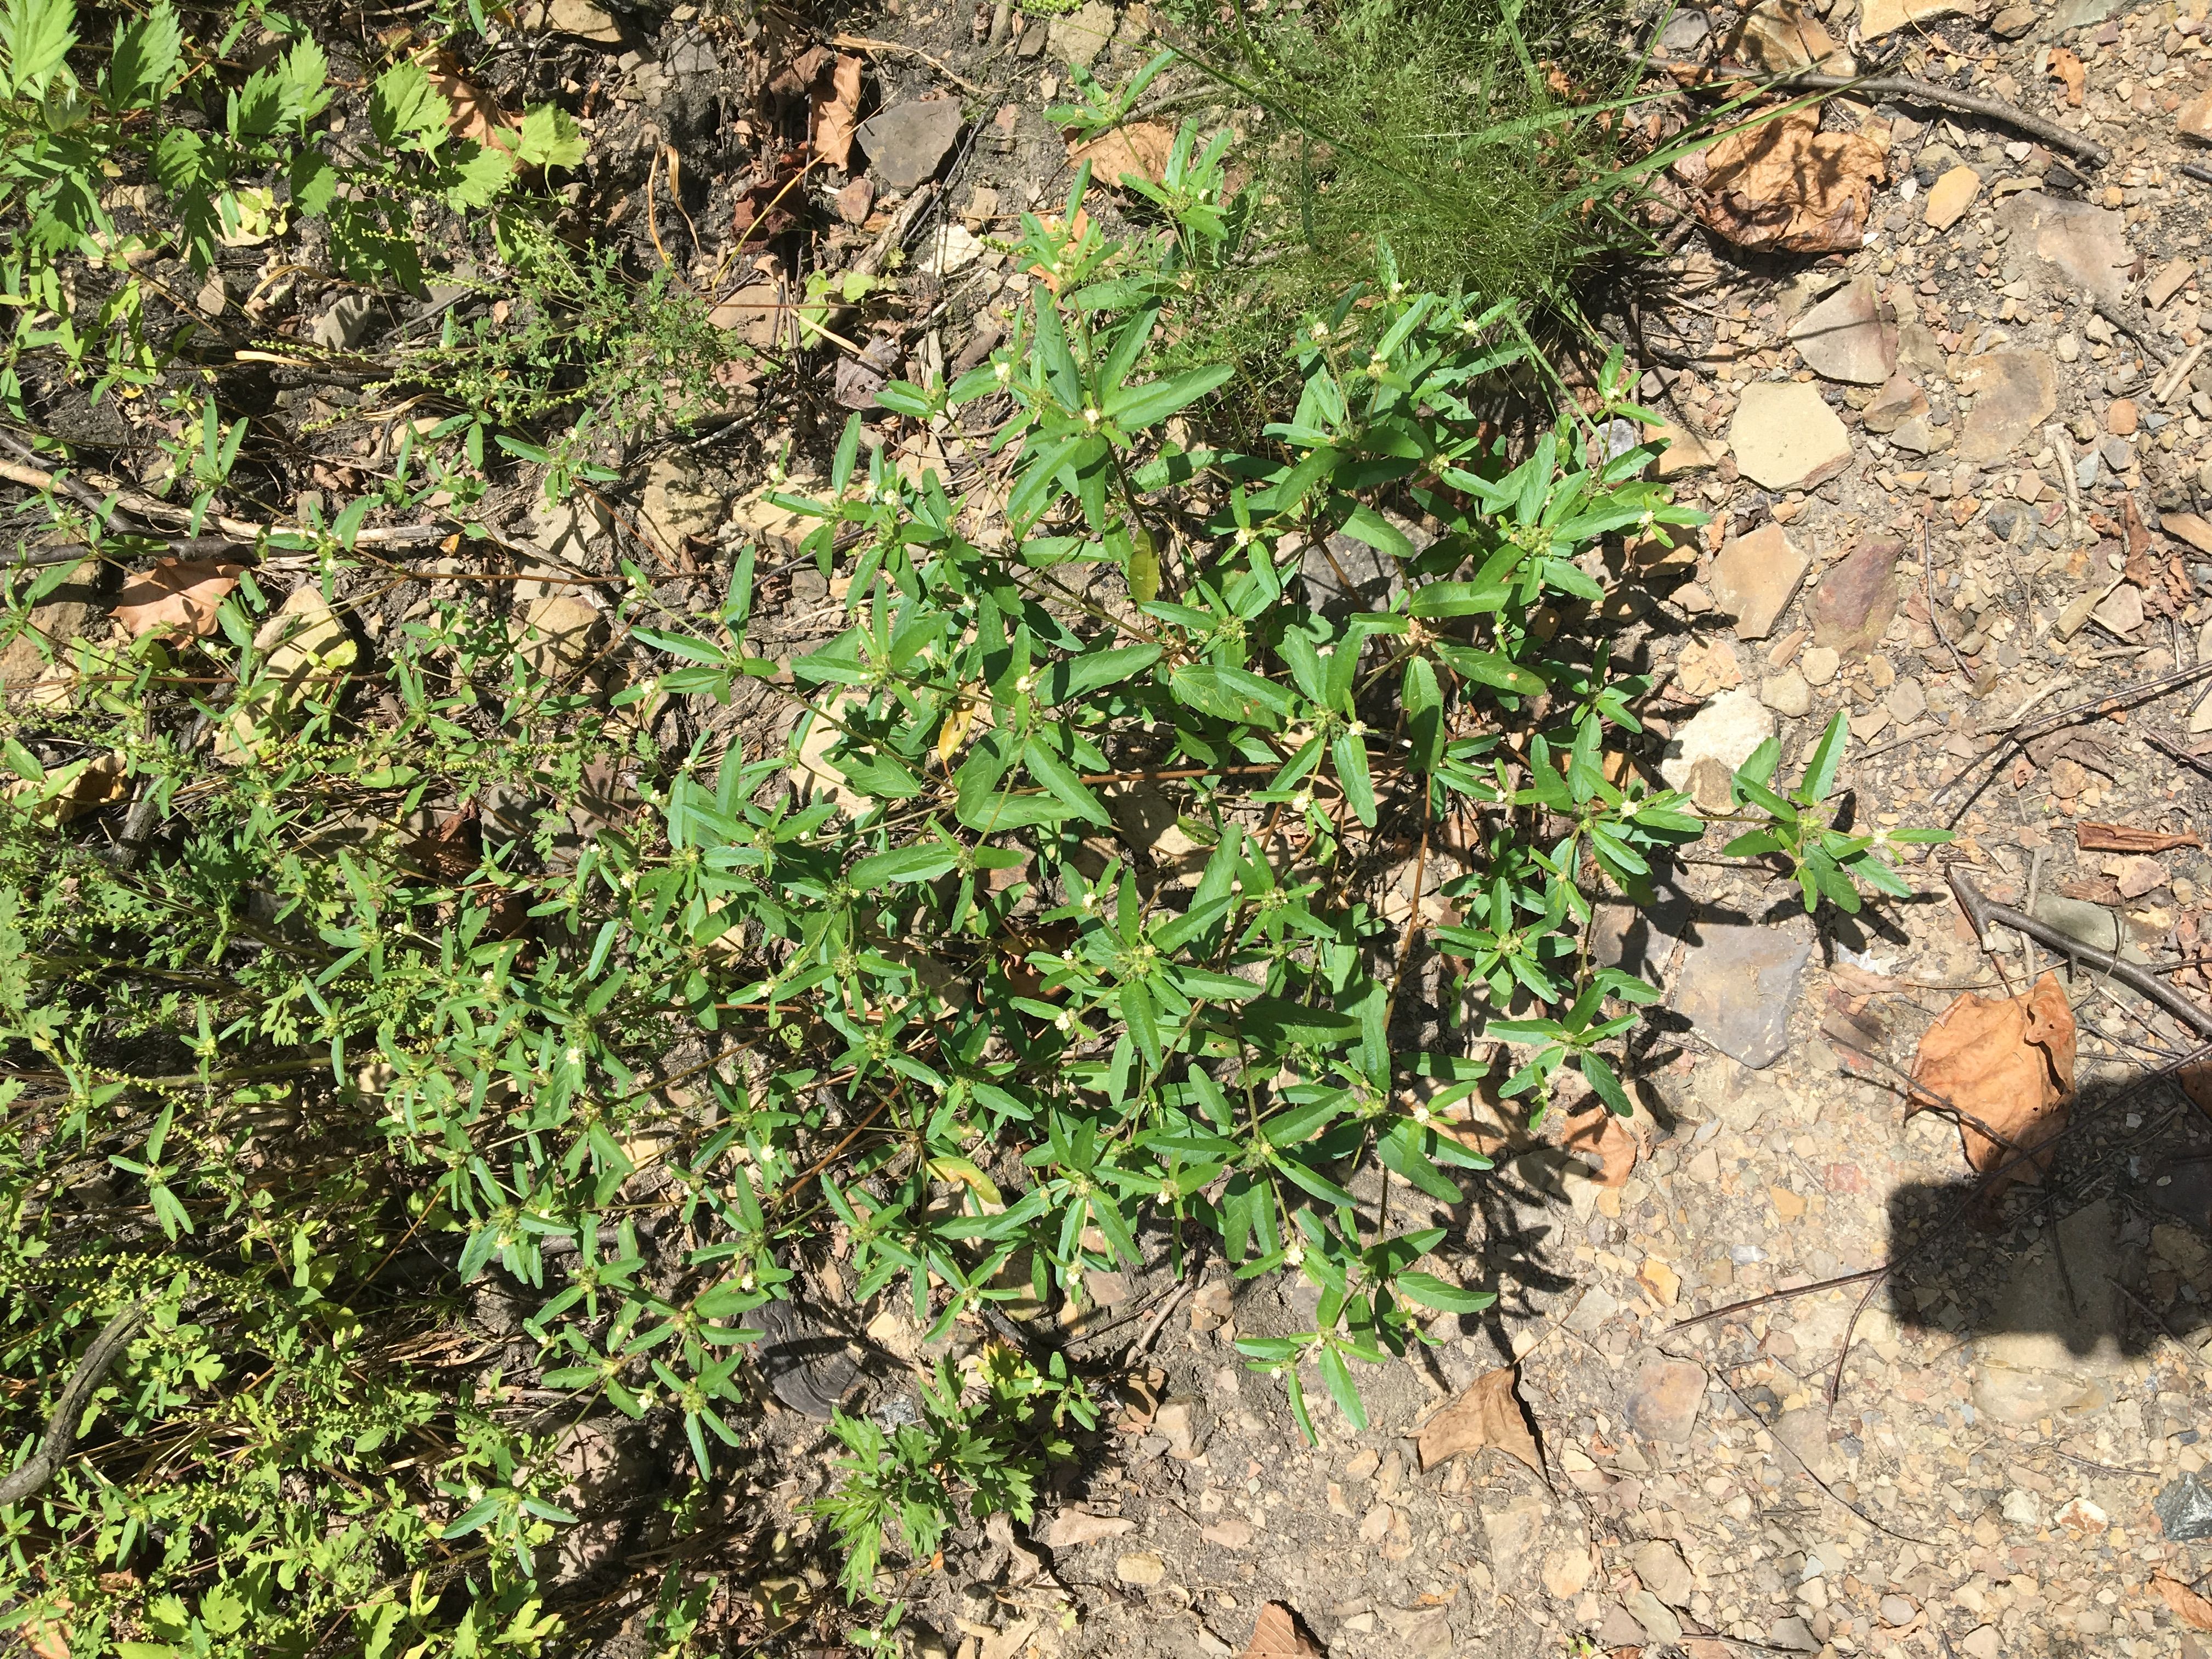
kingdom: Plantae
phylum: Tracheophyta
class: Magnoliopsida
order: Malpighiales
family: Euphorbiaceae
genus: Croton
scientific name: Croton glandulosus
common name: vente conmigo
